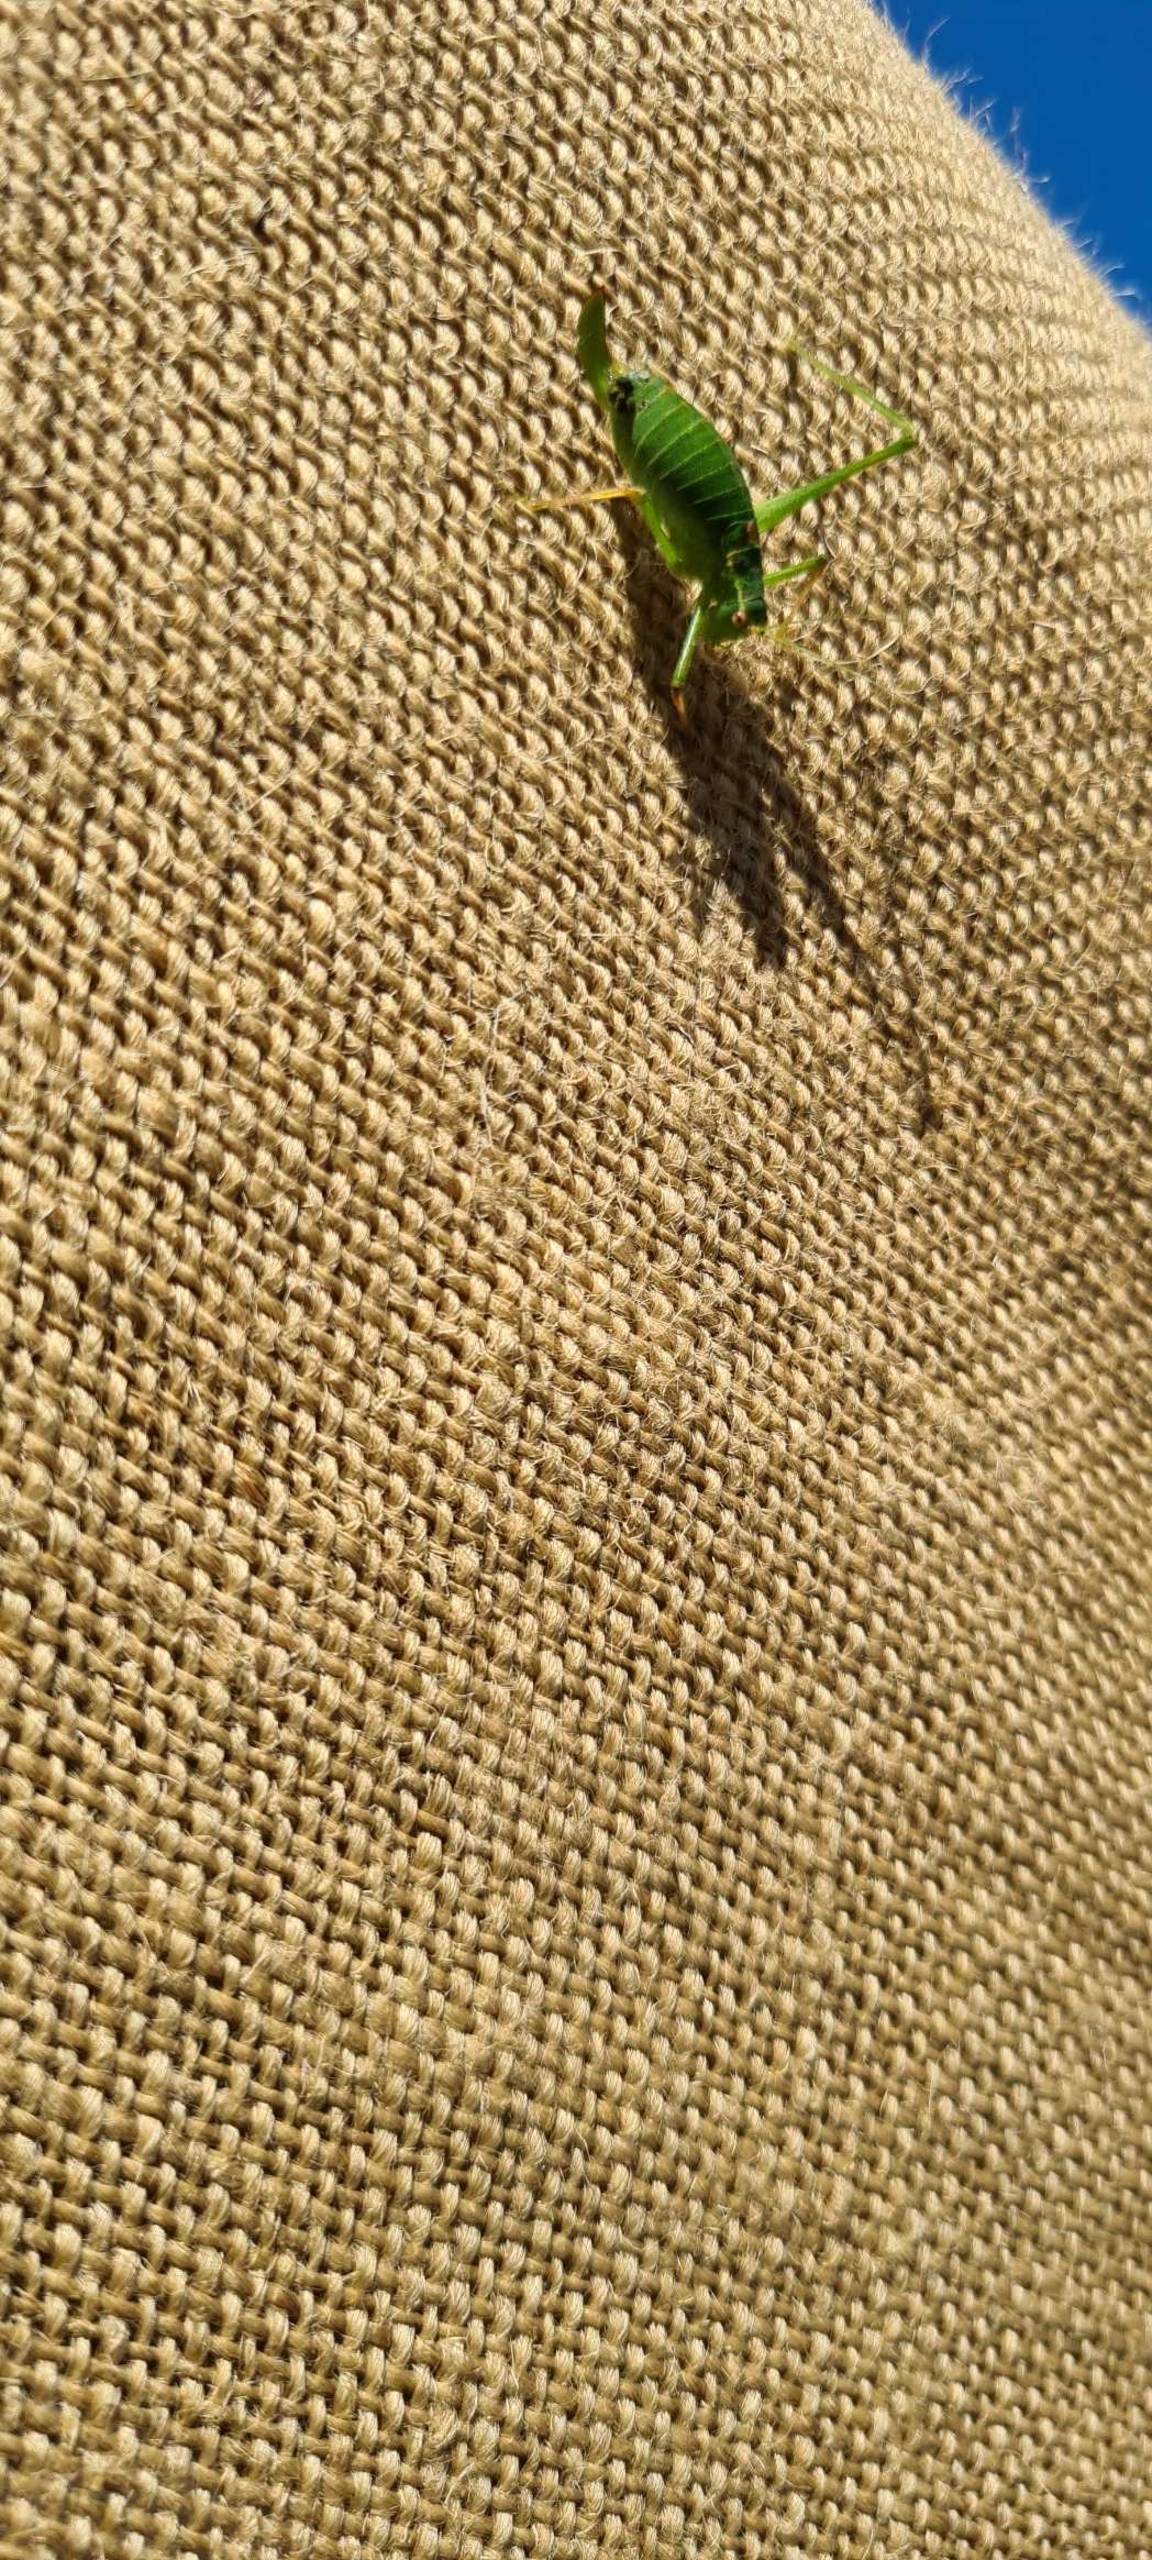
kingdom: Animalia
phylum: Arthropoda
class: Insecta
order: Orthoptera
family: Tettigoniidae
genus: Leptophyes
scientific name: Leptophyes punctatissima
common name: Krumknivgræshoppe
